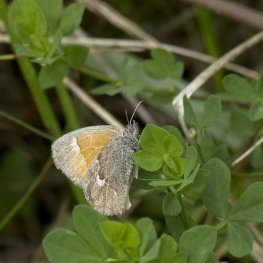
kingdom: Animalia
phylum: Arthropoda
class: Insecta
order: Lepidoptera
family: Nymphalidae
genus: Coenonympha
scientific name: Coenonympha tullia
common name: Large Heath
